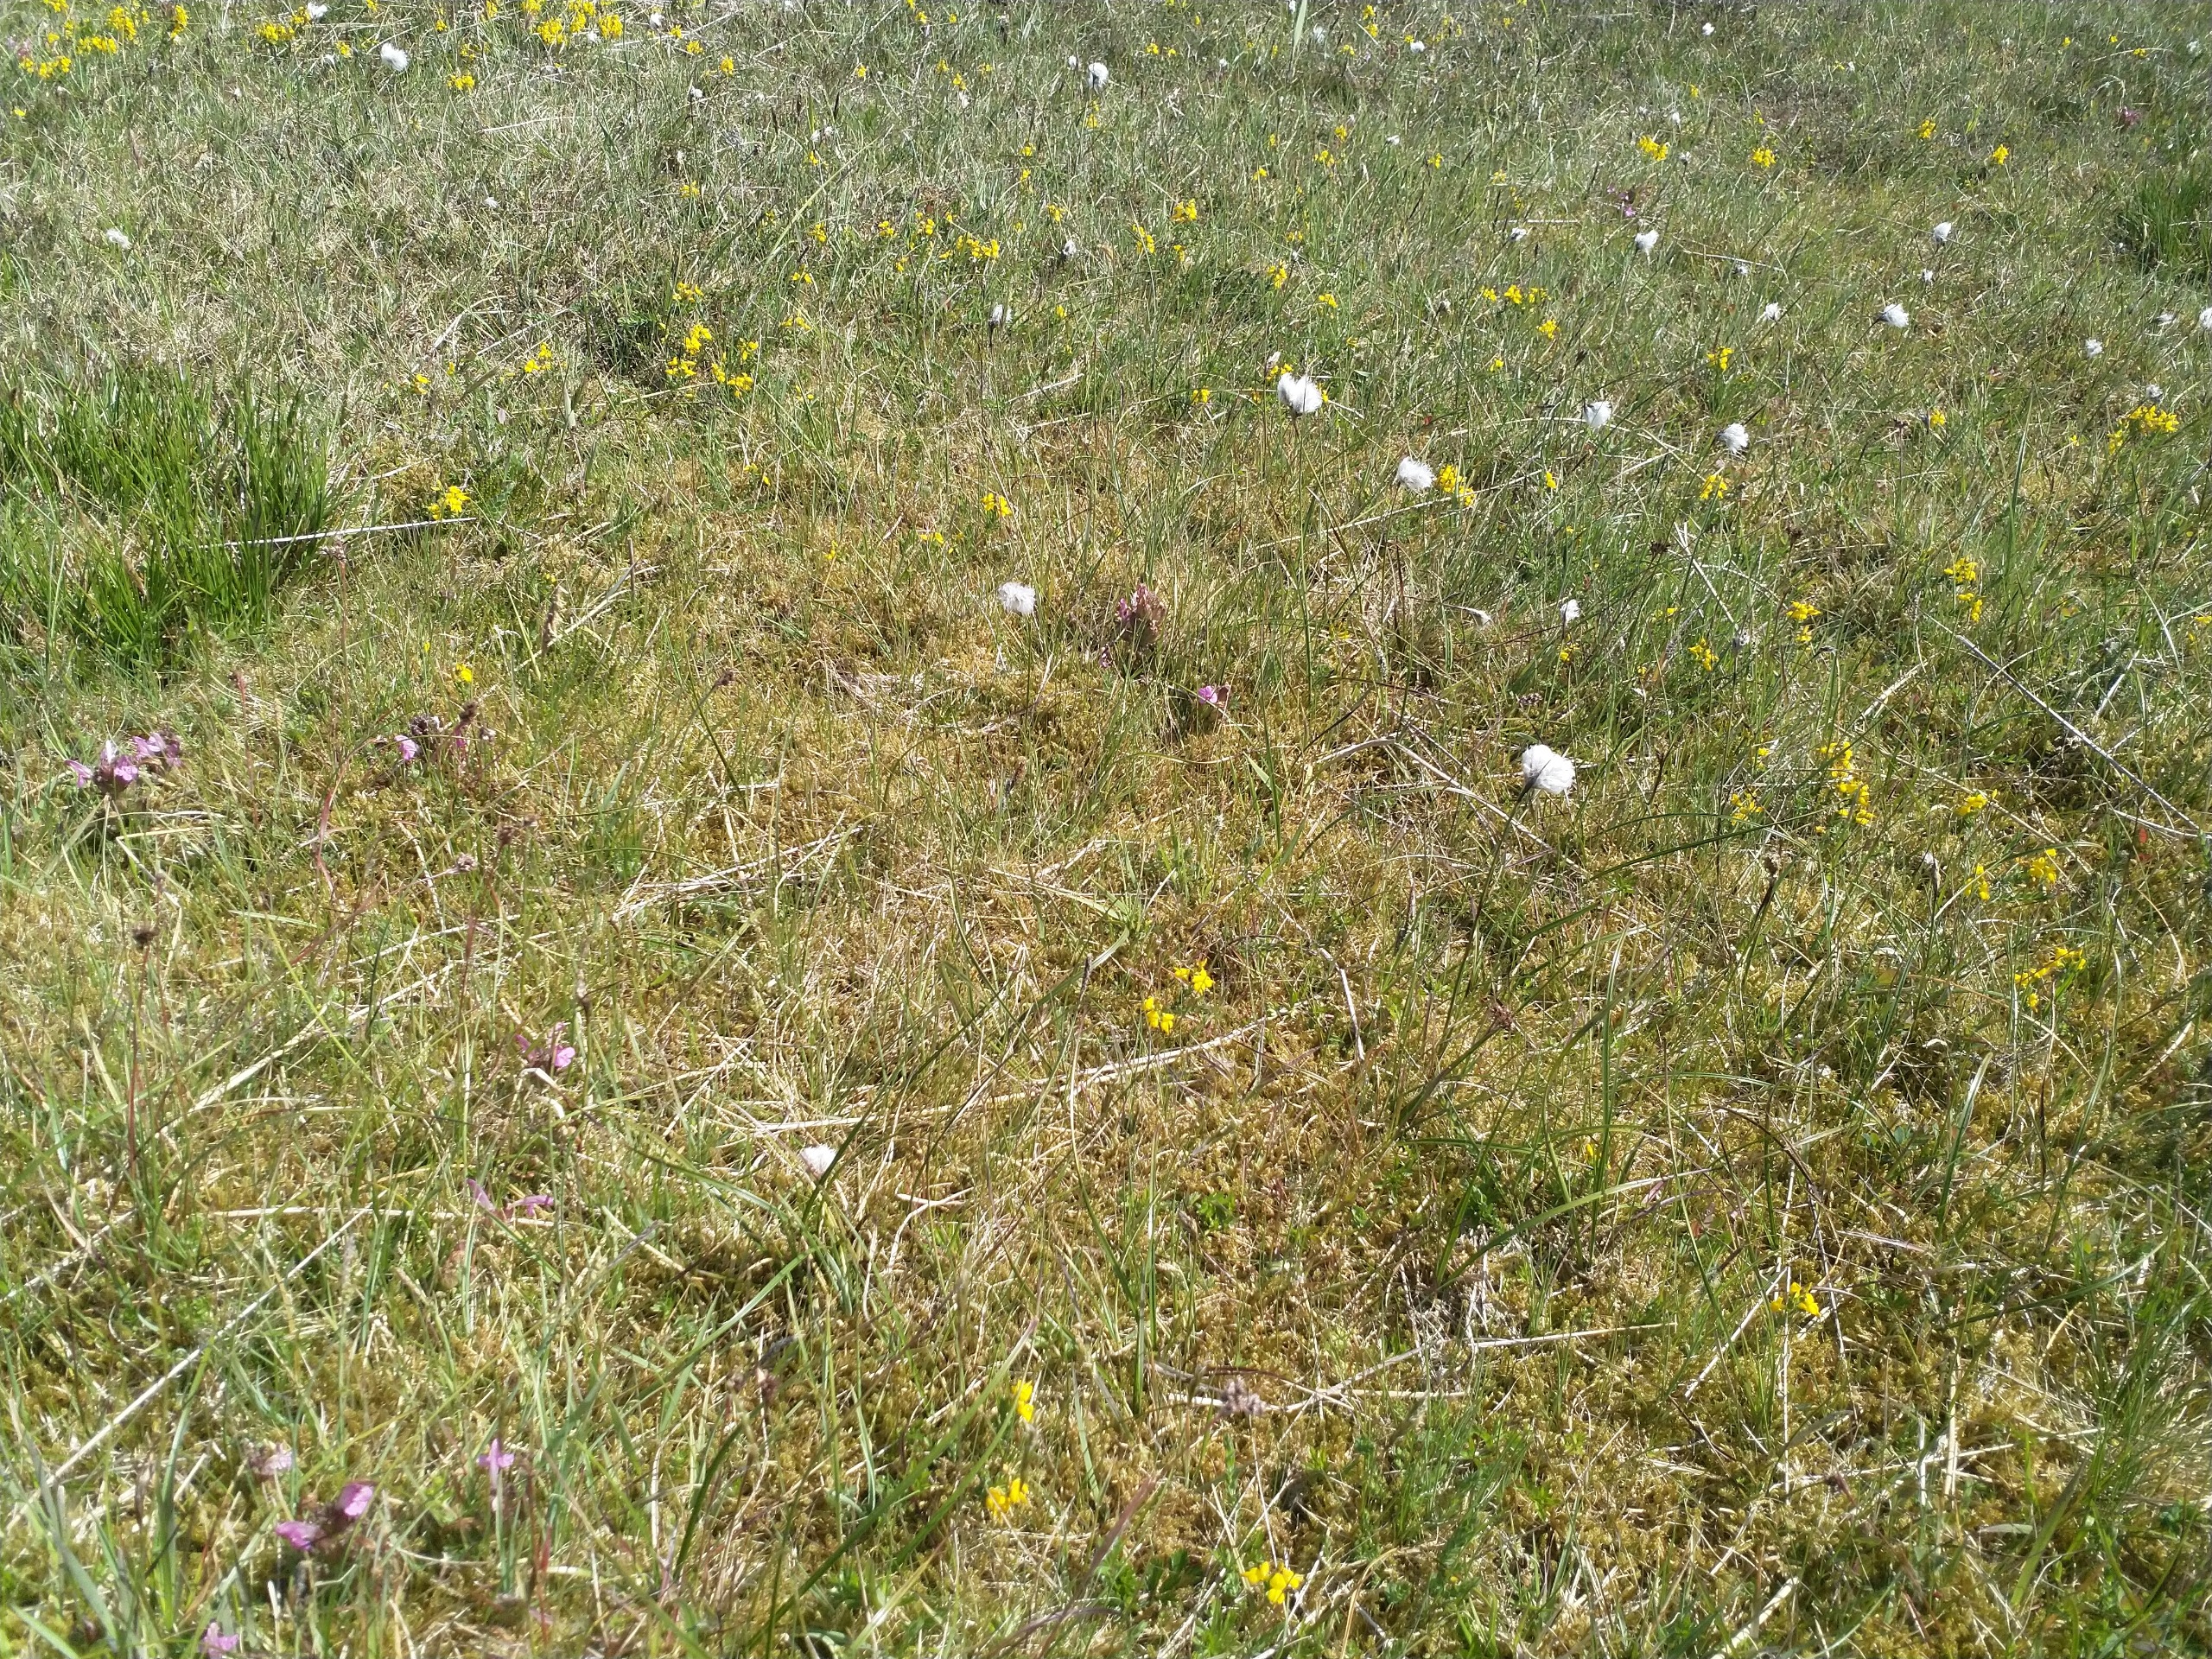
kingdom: Plantae
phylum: Tracheophyta
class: Liliopsida
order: Poales
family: Cyperaceae
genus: Eriophorum
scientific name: Eriophorum angustifolium
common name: Smalbladet kæruld
